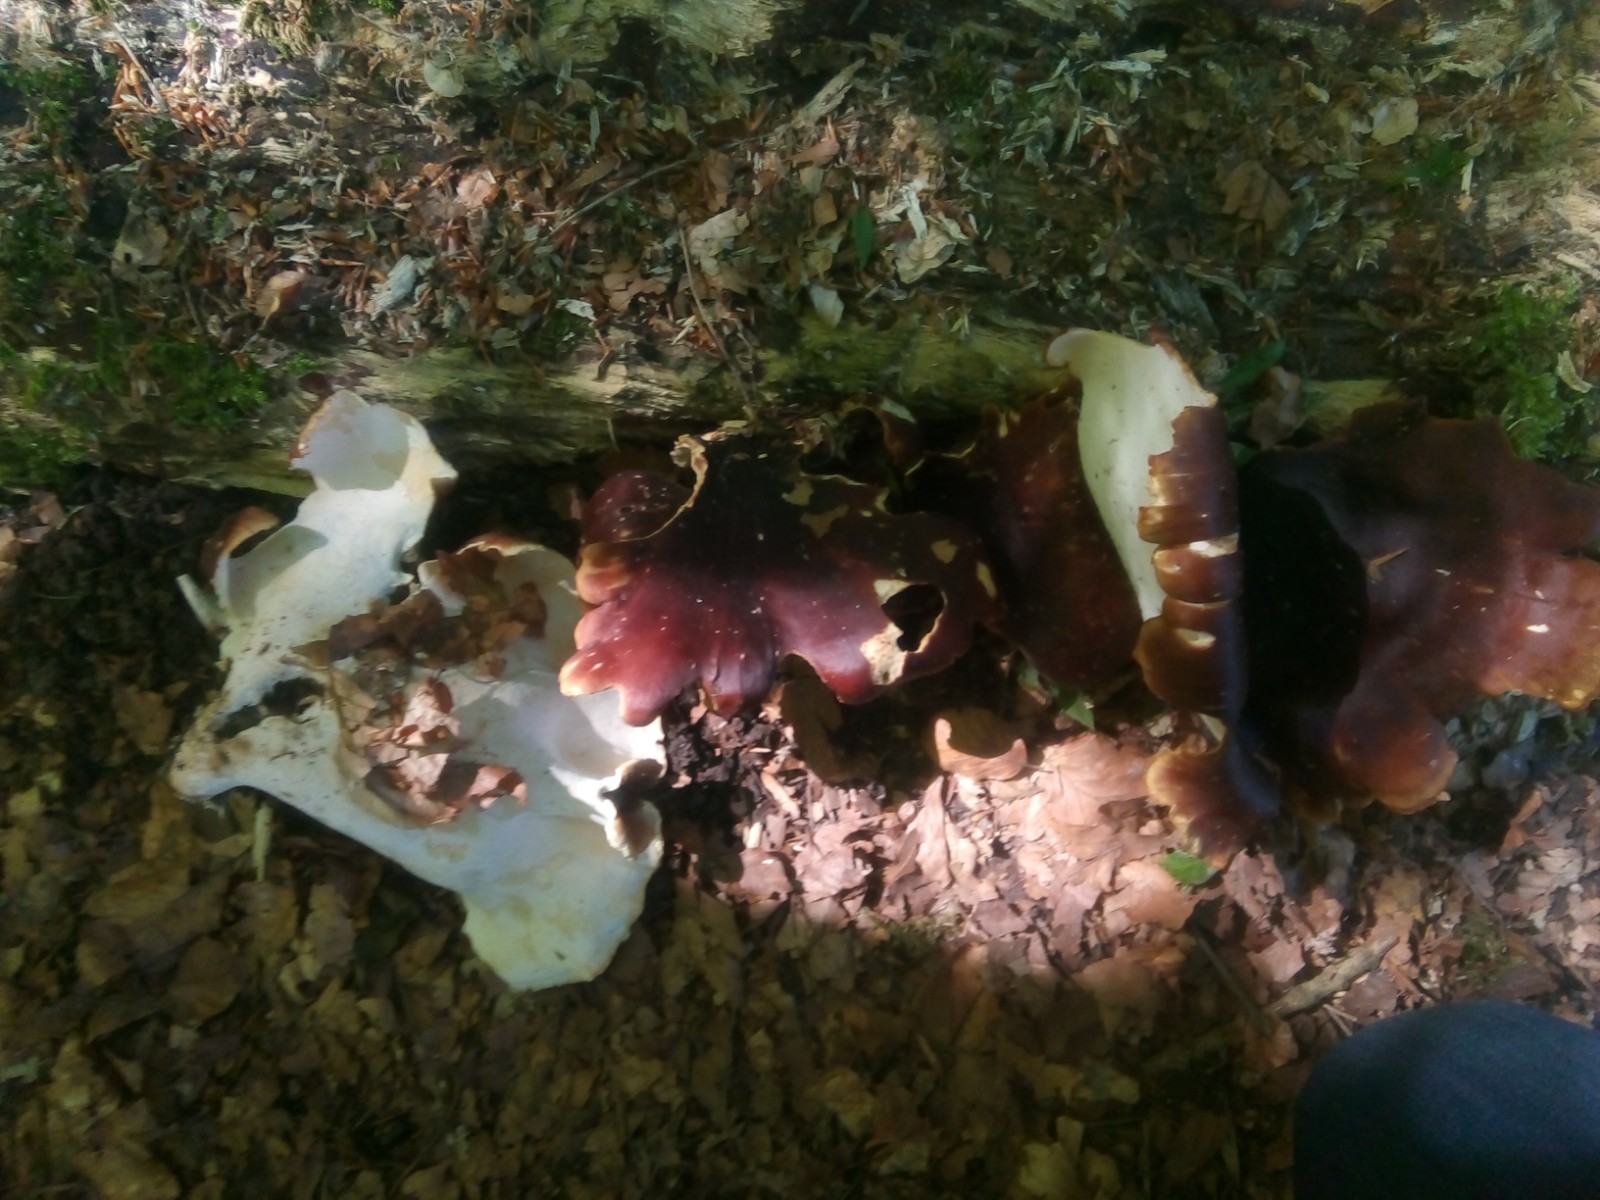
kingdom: Fungi
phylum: Basidiomycota
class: Agaricomycetes
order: Polyporales
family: Polyporaceae
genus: Picipes
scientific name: Picipes badius
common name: kastaniebrun stilkporesvamp
